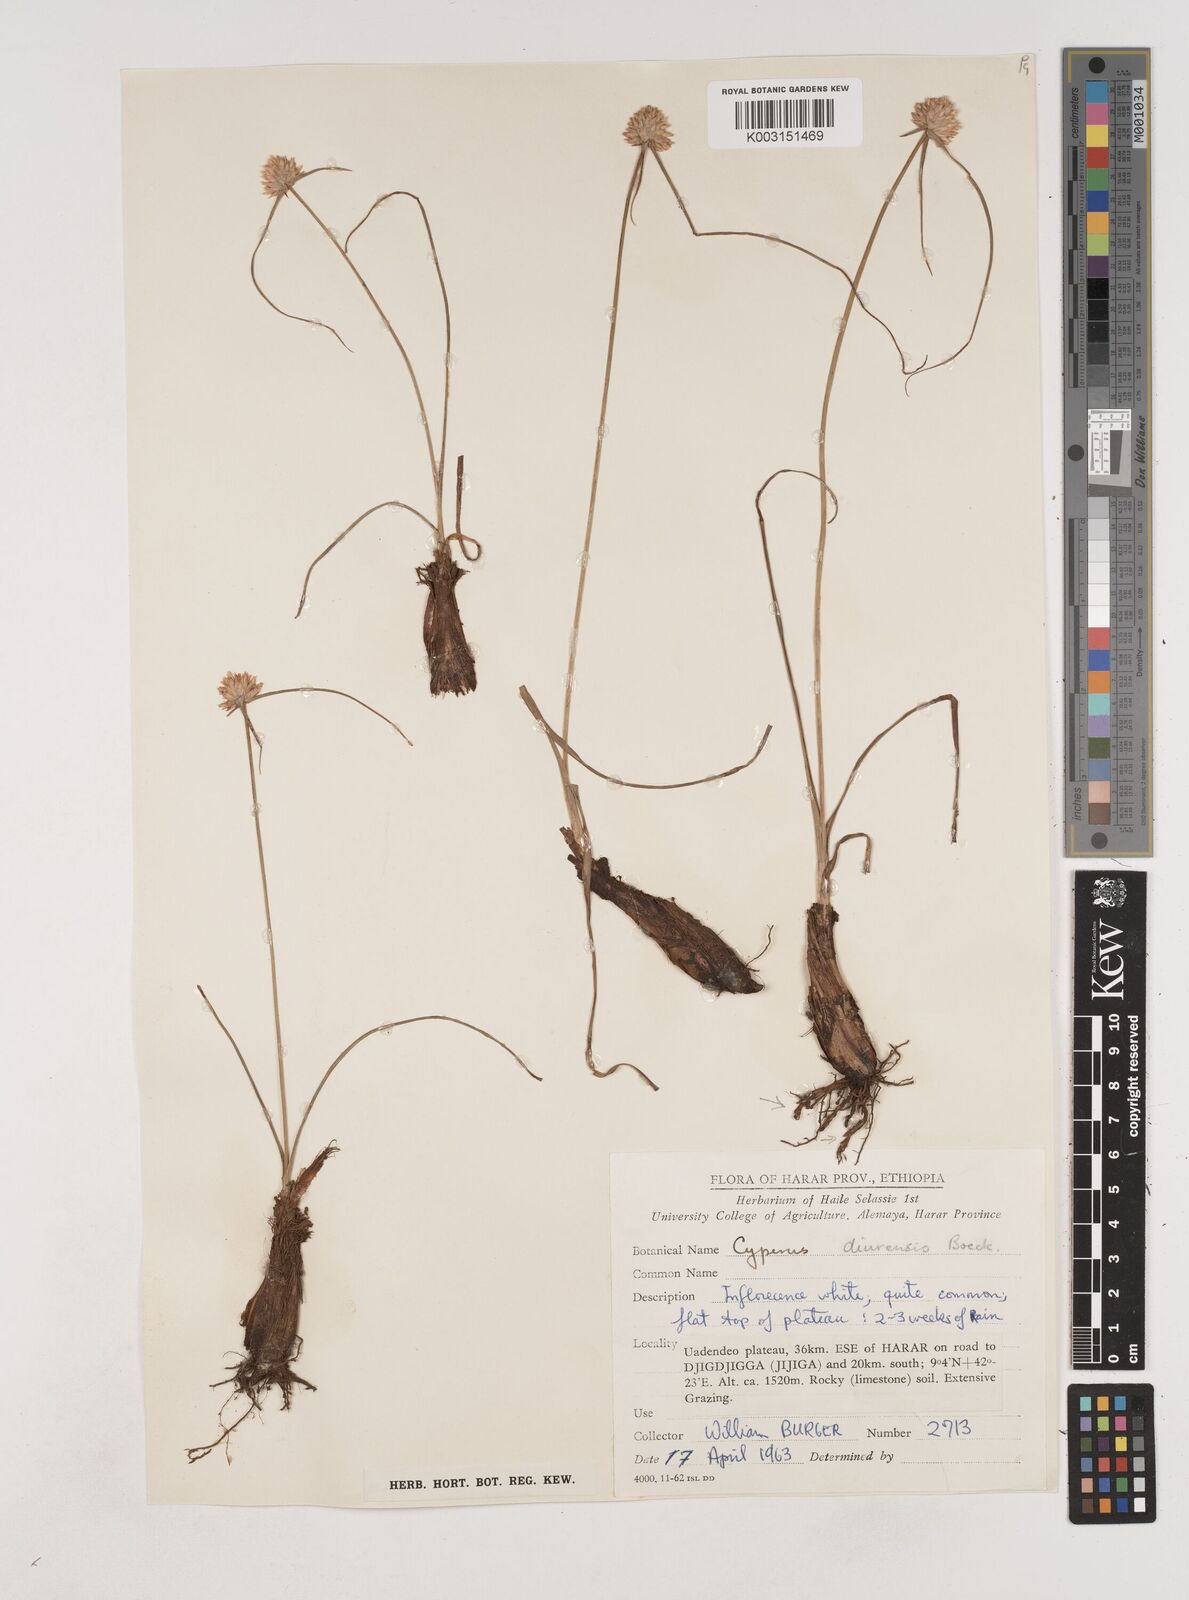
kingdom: Plantae
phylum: Tracheophyta
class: Liliopsida
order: Poales
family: Cyperaceae
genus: Cyperus
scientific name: Cyperus diurensis
